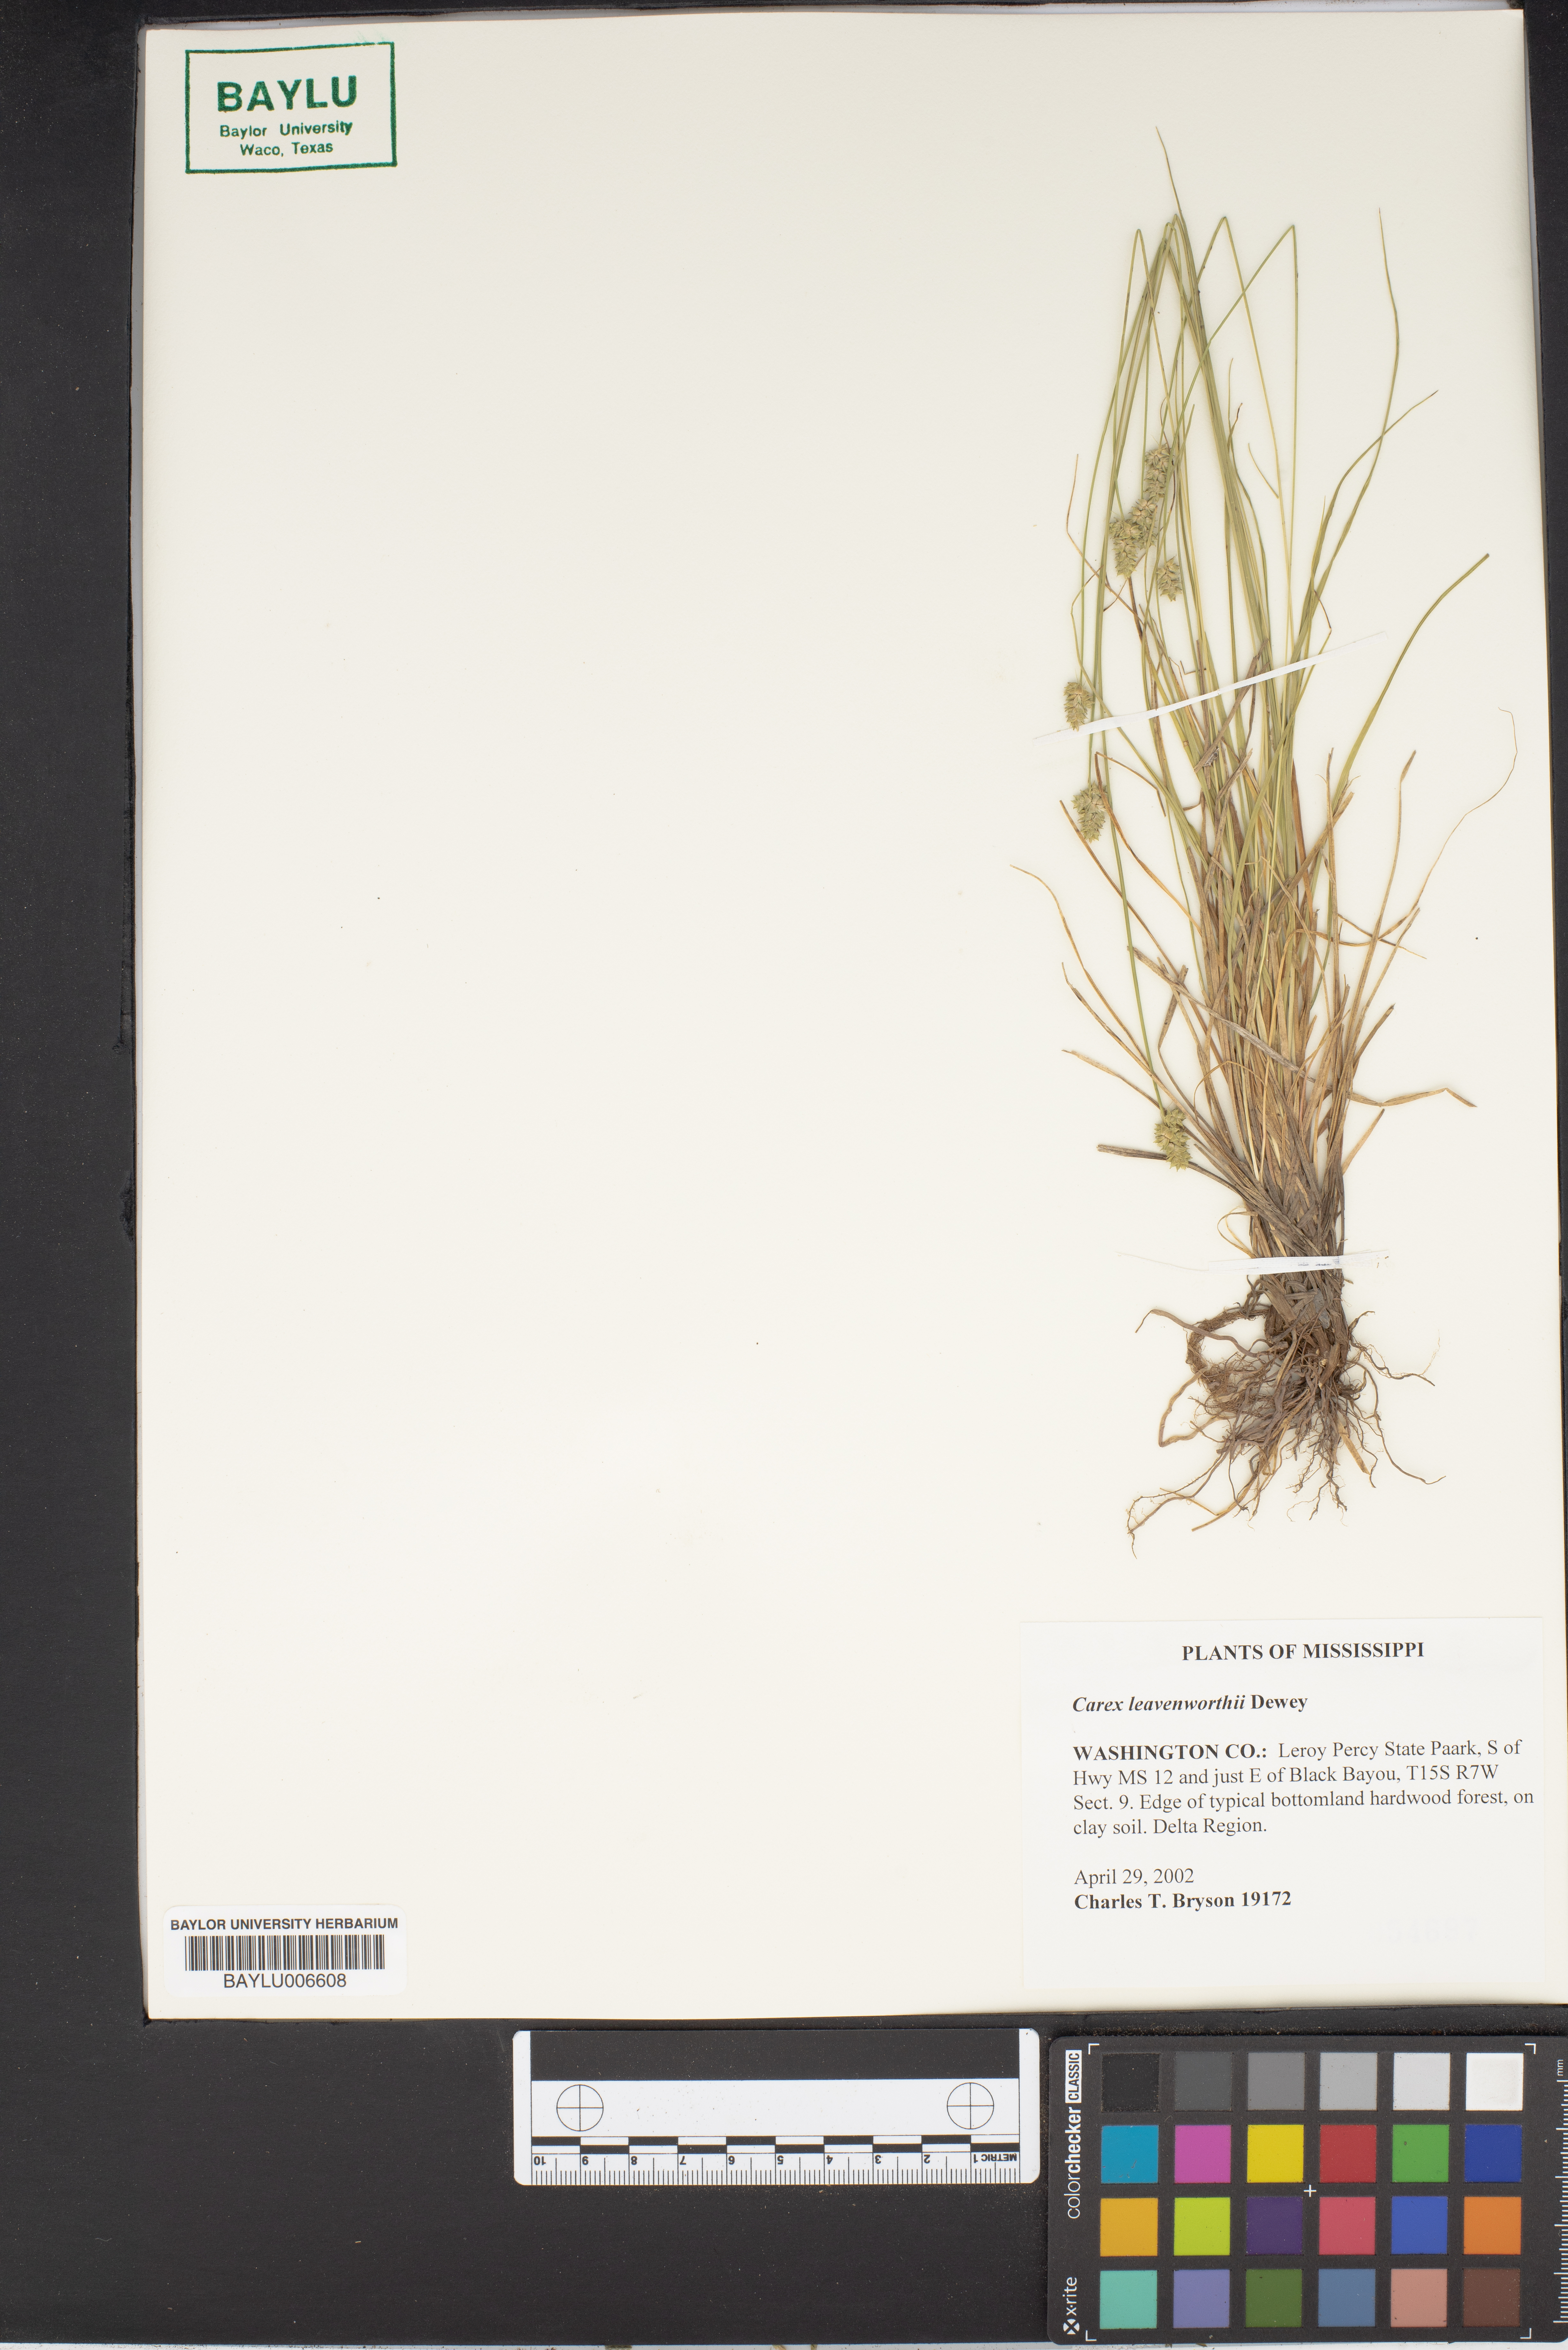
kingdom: Plantae
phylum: Tracheophyta
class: Liliopsida
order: Poales
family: Cyperaceae
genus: Carex
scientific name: Carex leavenworthii
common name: Leavenworth's bracted sedge
